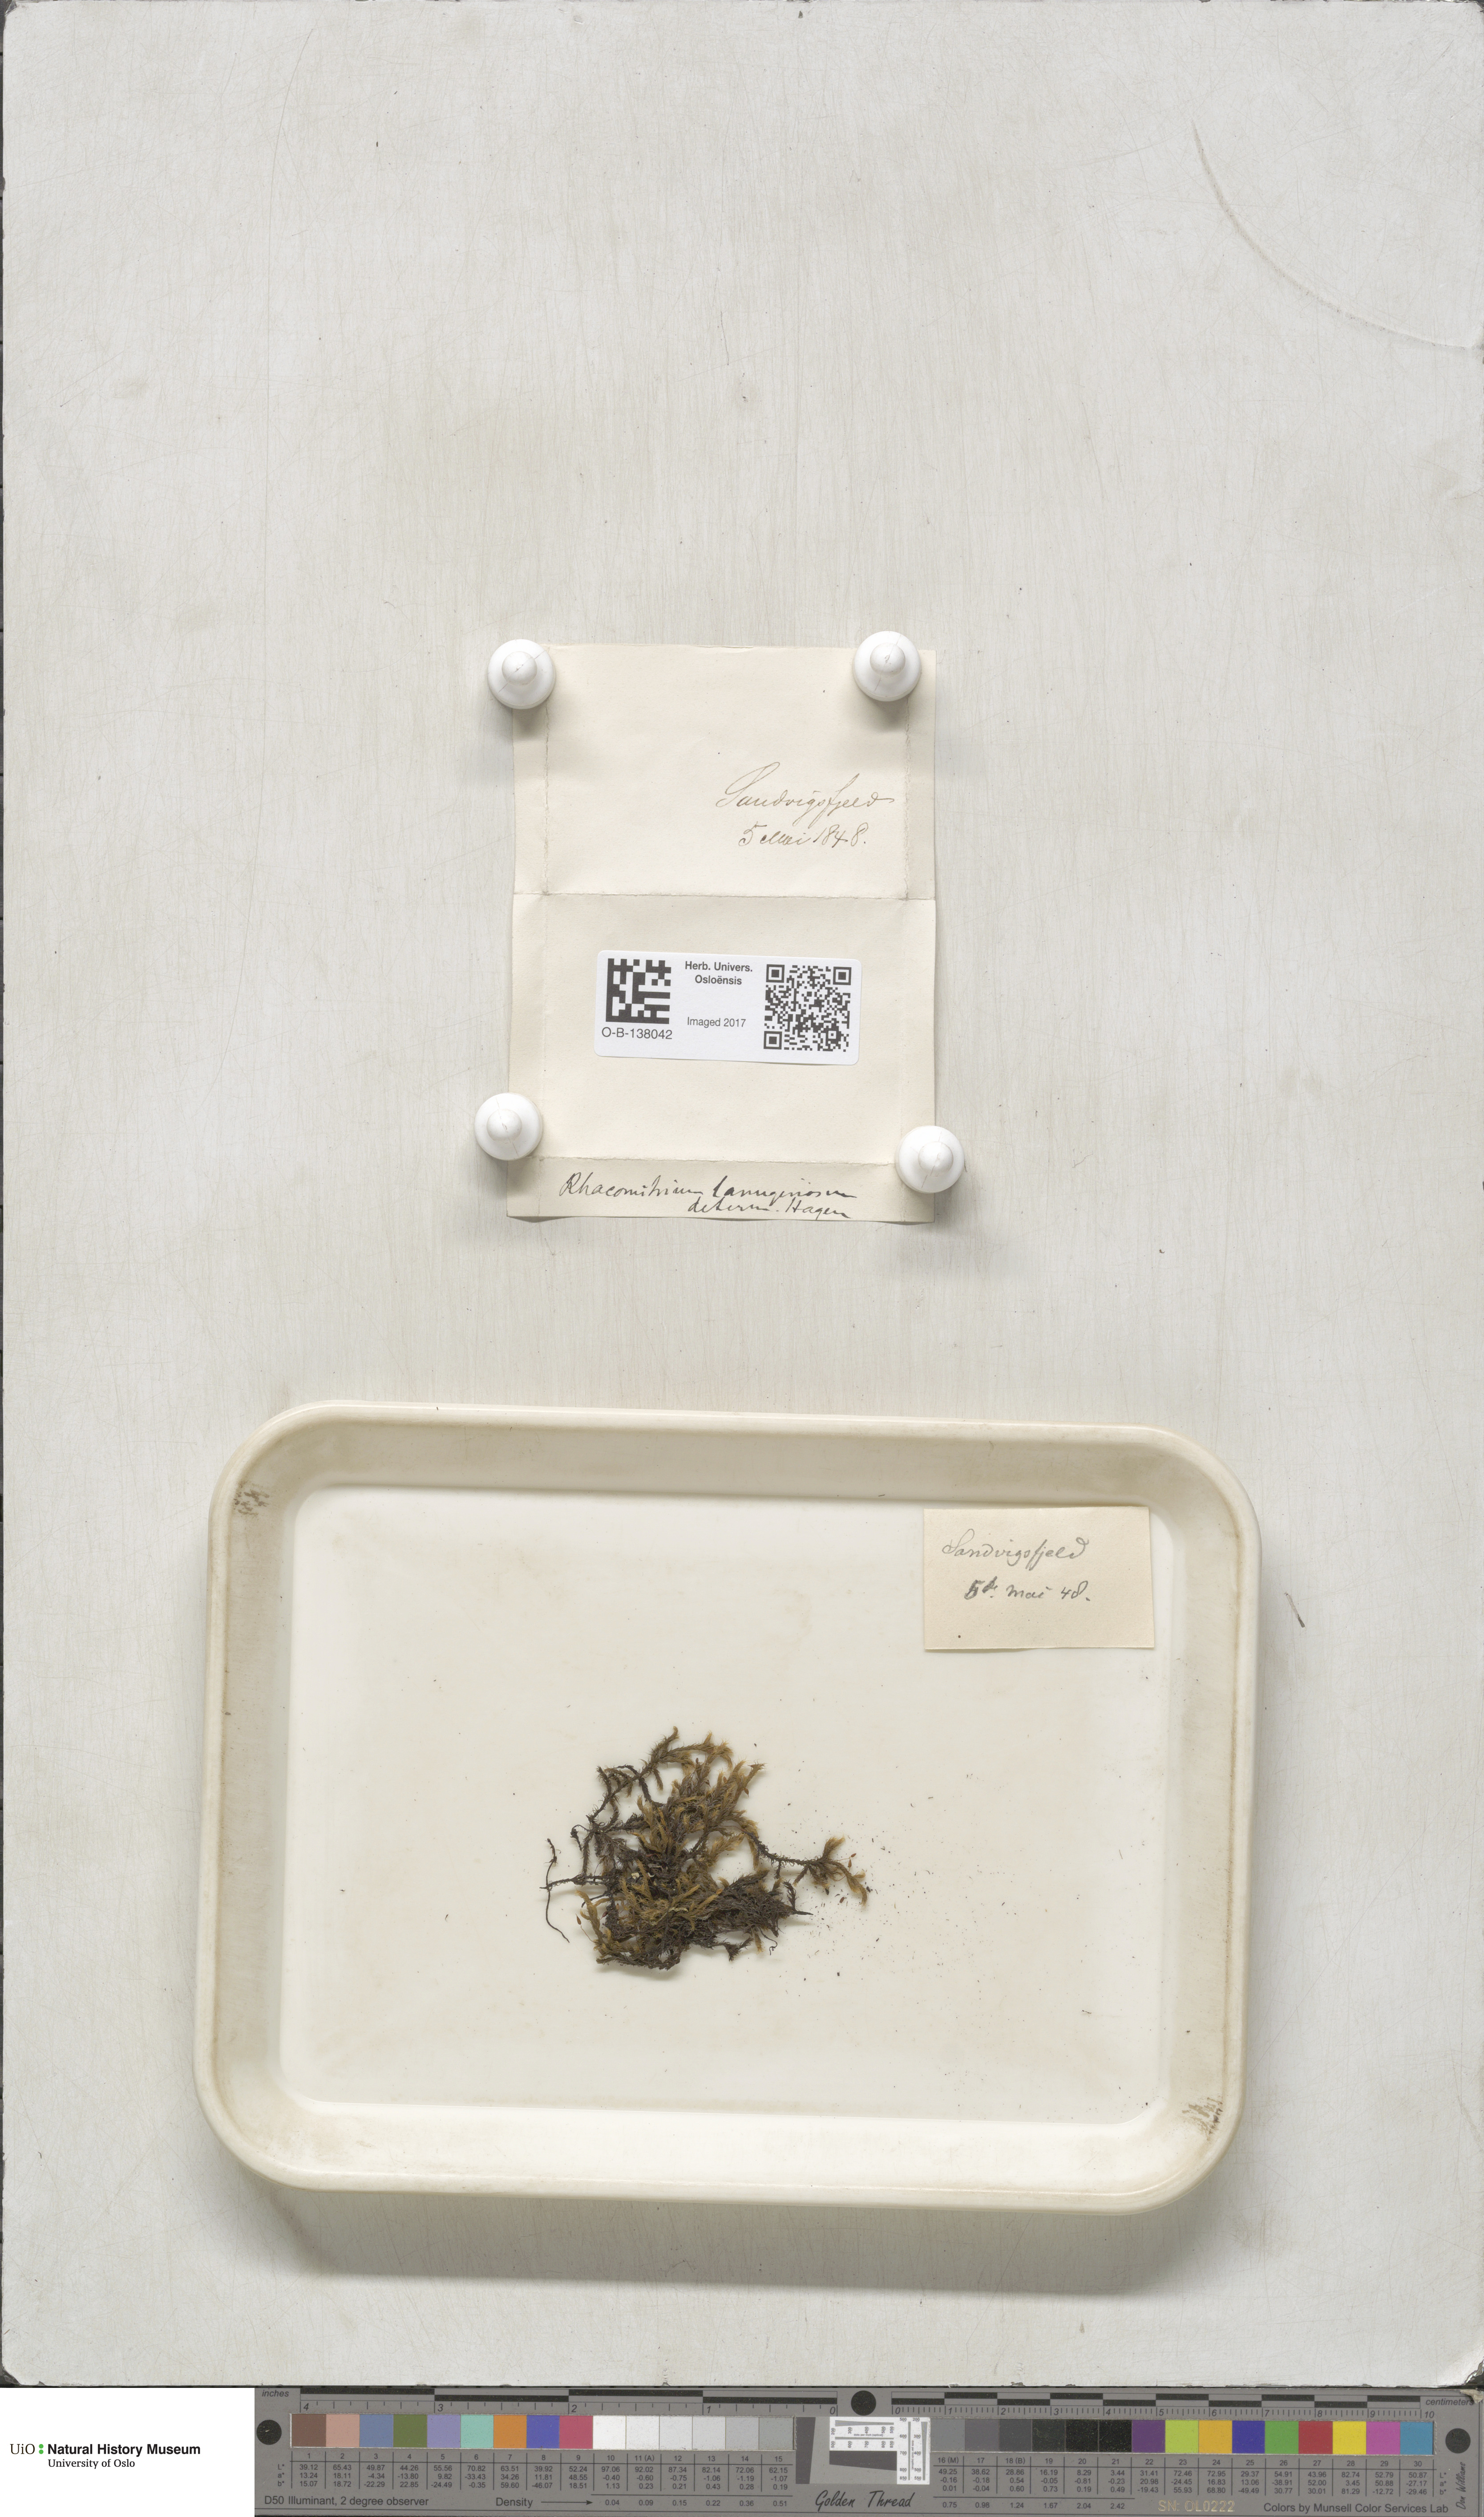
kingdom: Plantae
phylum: Bryophyta
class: Bryopsida
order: Grimmiales
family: Grimmiaceae
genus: Racomitrium
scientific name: Racomitrium lanuginosum
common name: Hoary rock moss
